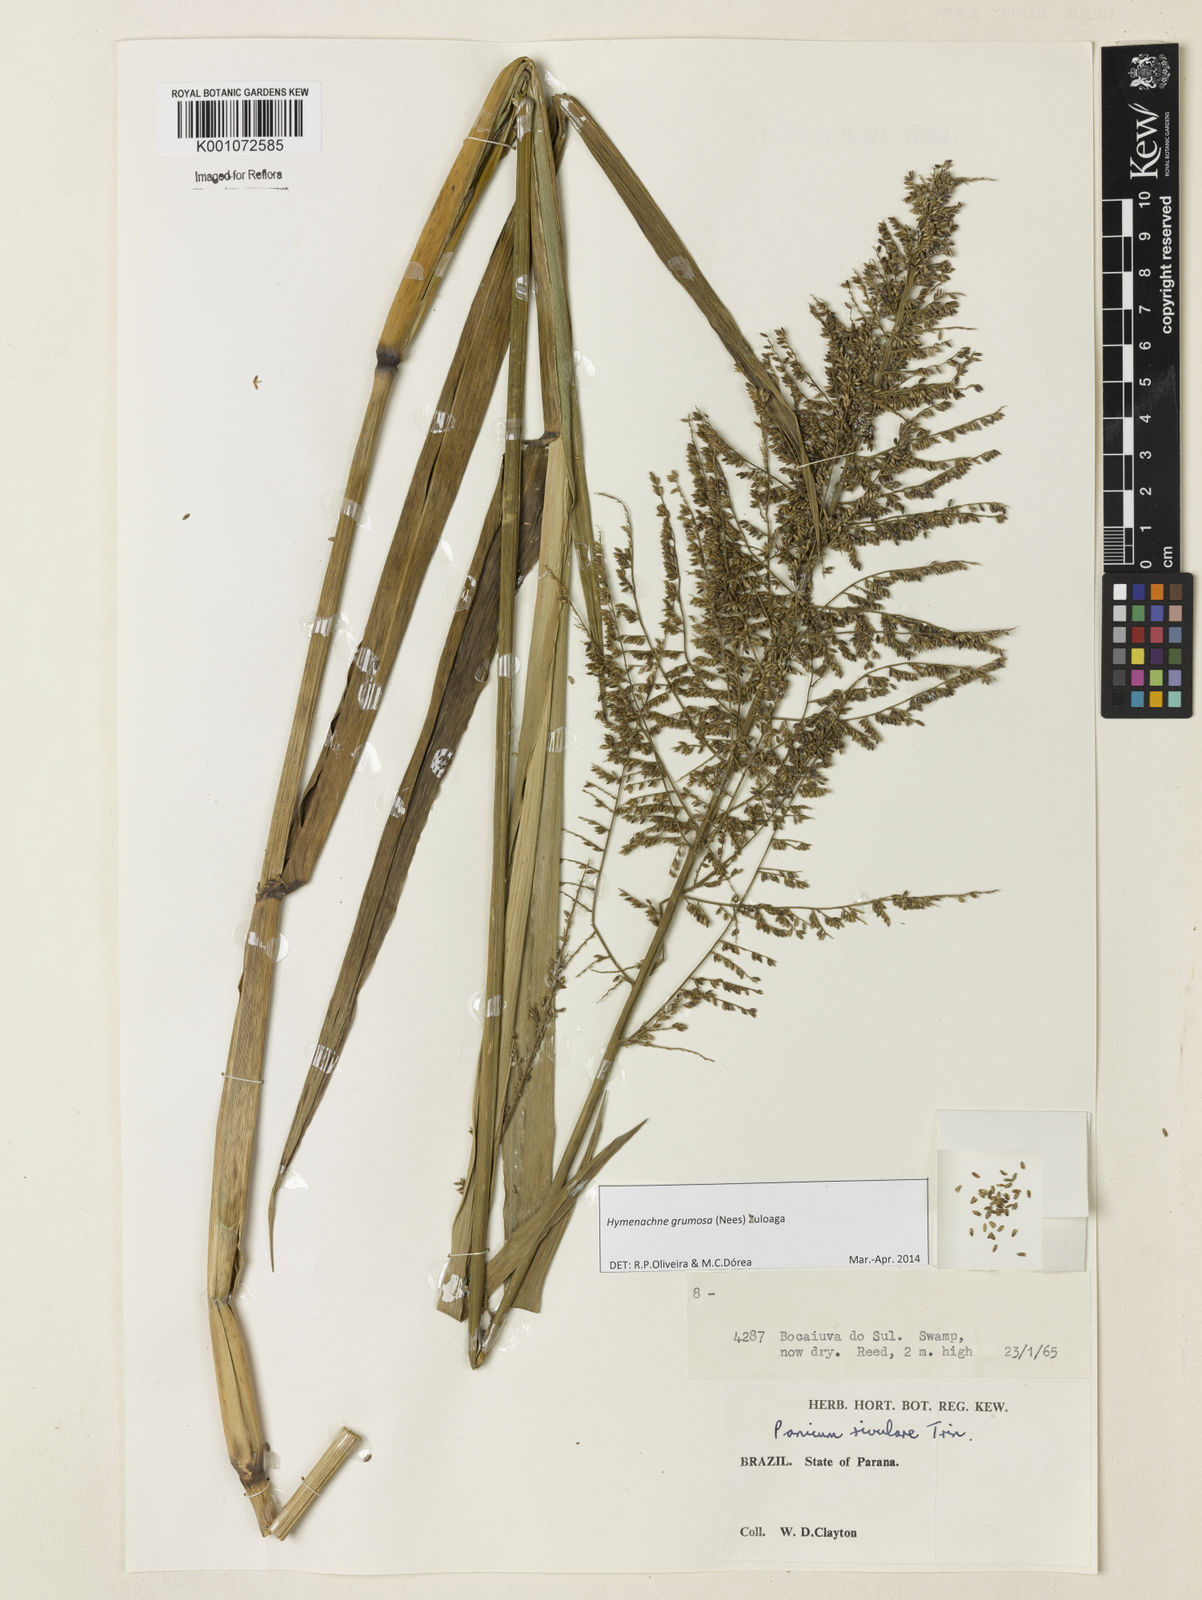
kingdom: Plantae
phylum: Tracheophyta
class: Liliopsida
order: Poales
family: Poaceae
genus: Hymenachne
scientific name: Hymenachne grumosa
